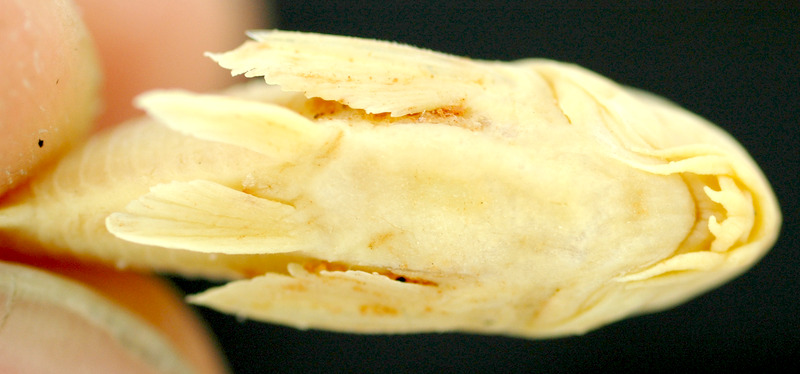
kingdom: Animalia
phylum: Chordata
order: Characiformes
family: Characidae
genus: Oligosarcus
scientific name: Oligosarcus schindleri
